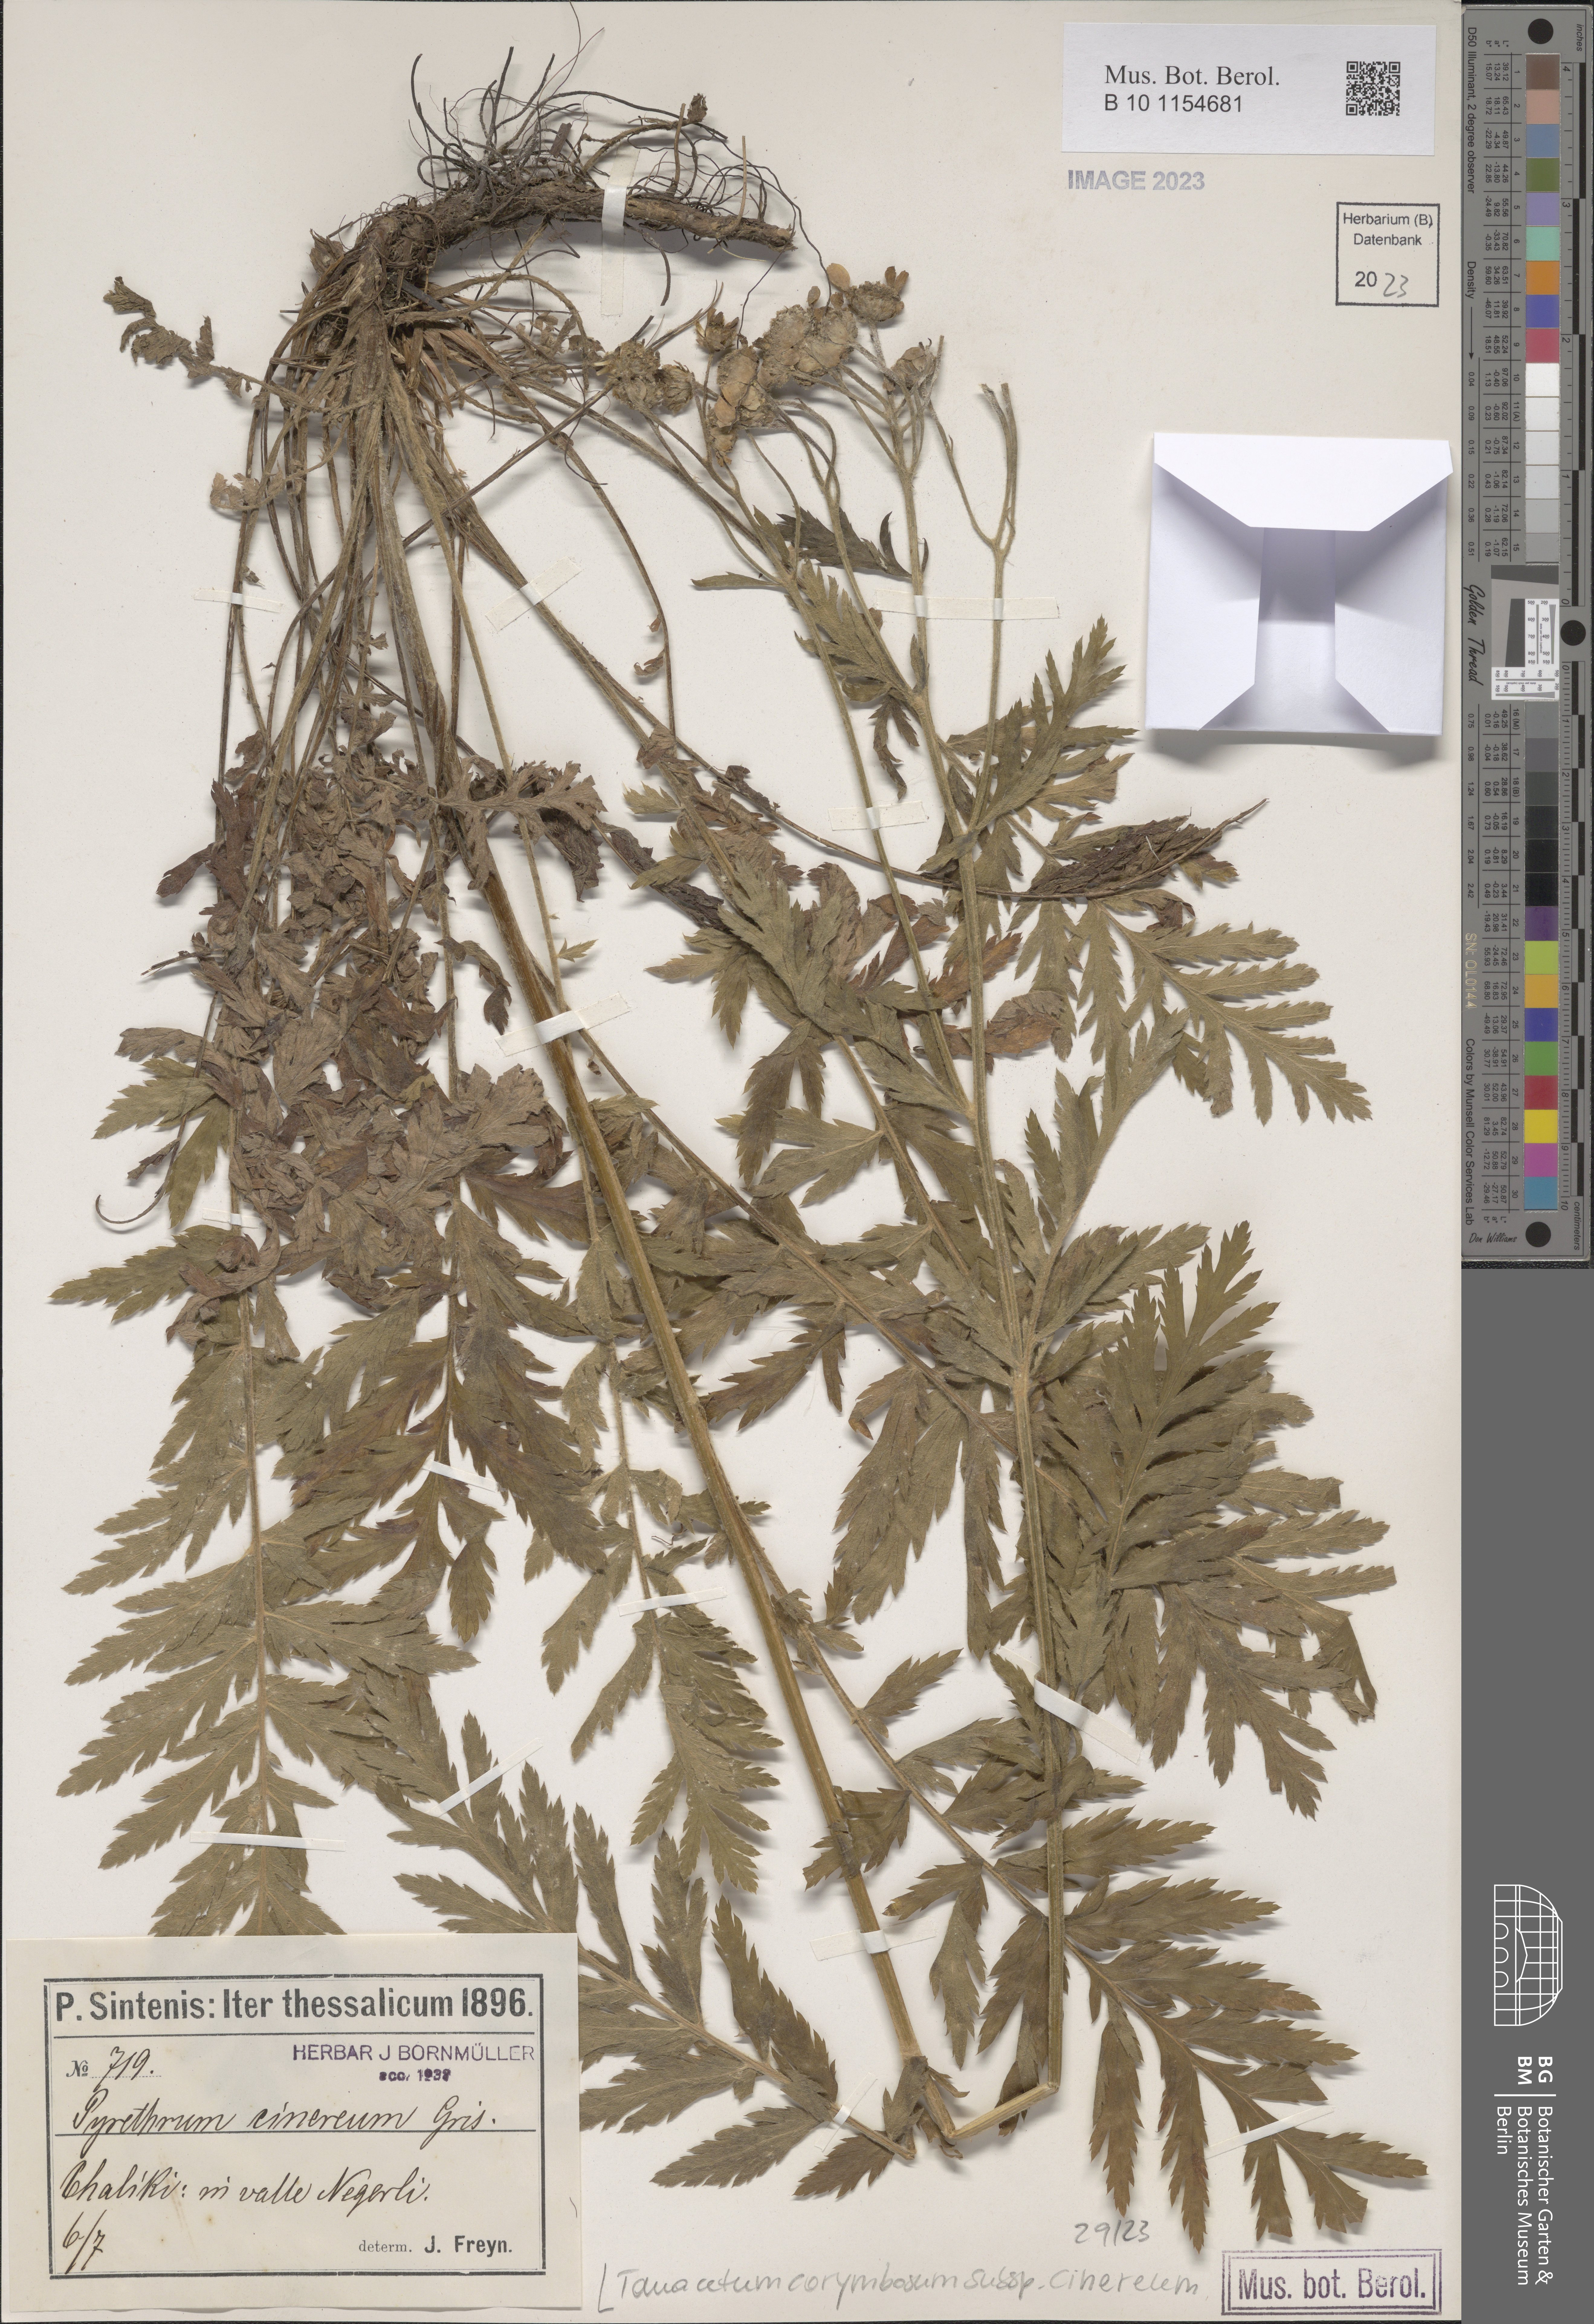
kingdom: Plantae
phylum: Tracheophyta
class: Magnoliopsida
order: Asterales
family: Asteraceae
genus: Tanacetum
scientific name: Tanacetum corymbosum
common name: Scentless feverfew
